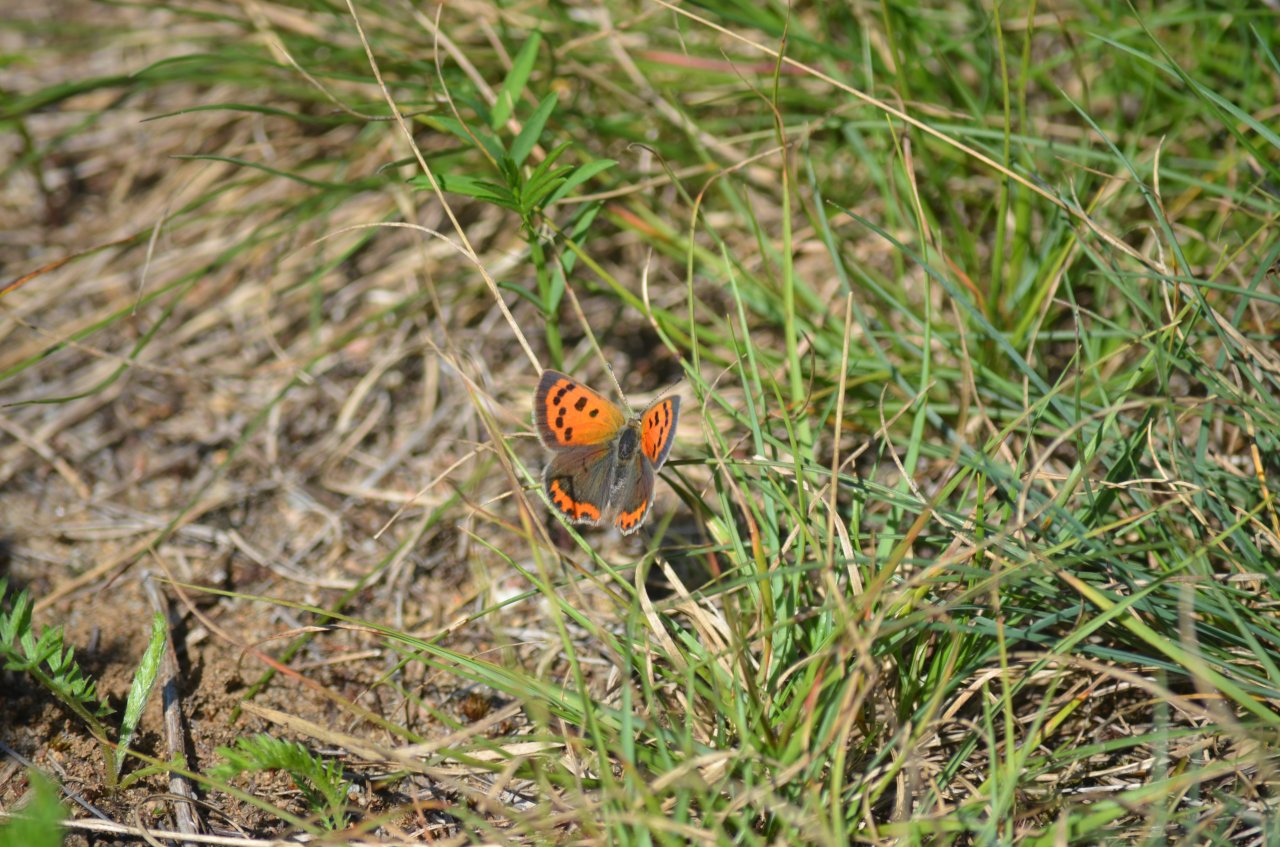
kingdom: Animalia
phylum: Arthropoda
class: Insecta
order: Lepidoptera
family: Lycaenidae
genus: Lycaena
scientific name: Lycaena phlaeas
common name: American Copper
